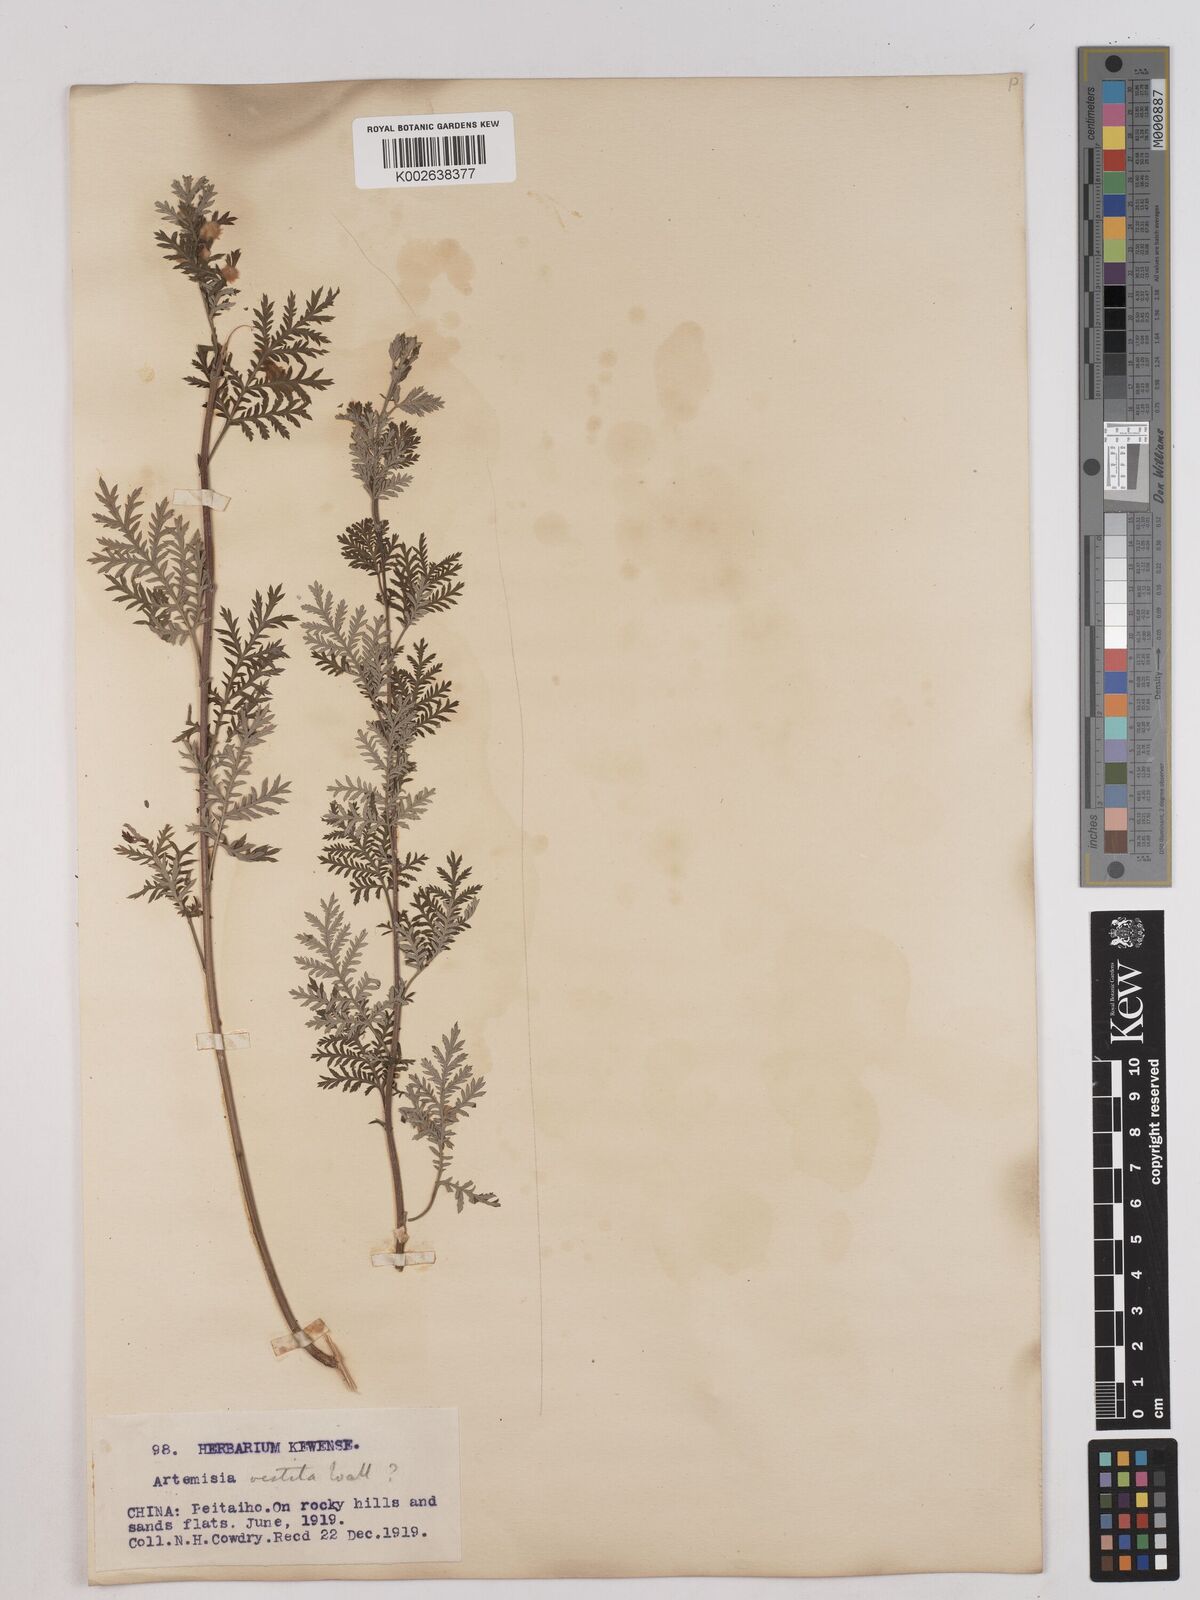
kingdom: Plantae
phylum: Tracheophyta
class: Magnoliopsida
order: Asterales
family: Asteraceae
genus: Artemisia
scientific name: Artemisia gmelinii
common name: Gmelin's wormwood
